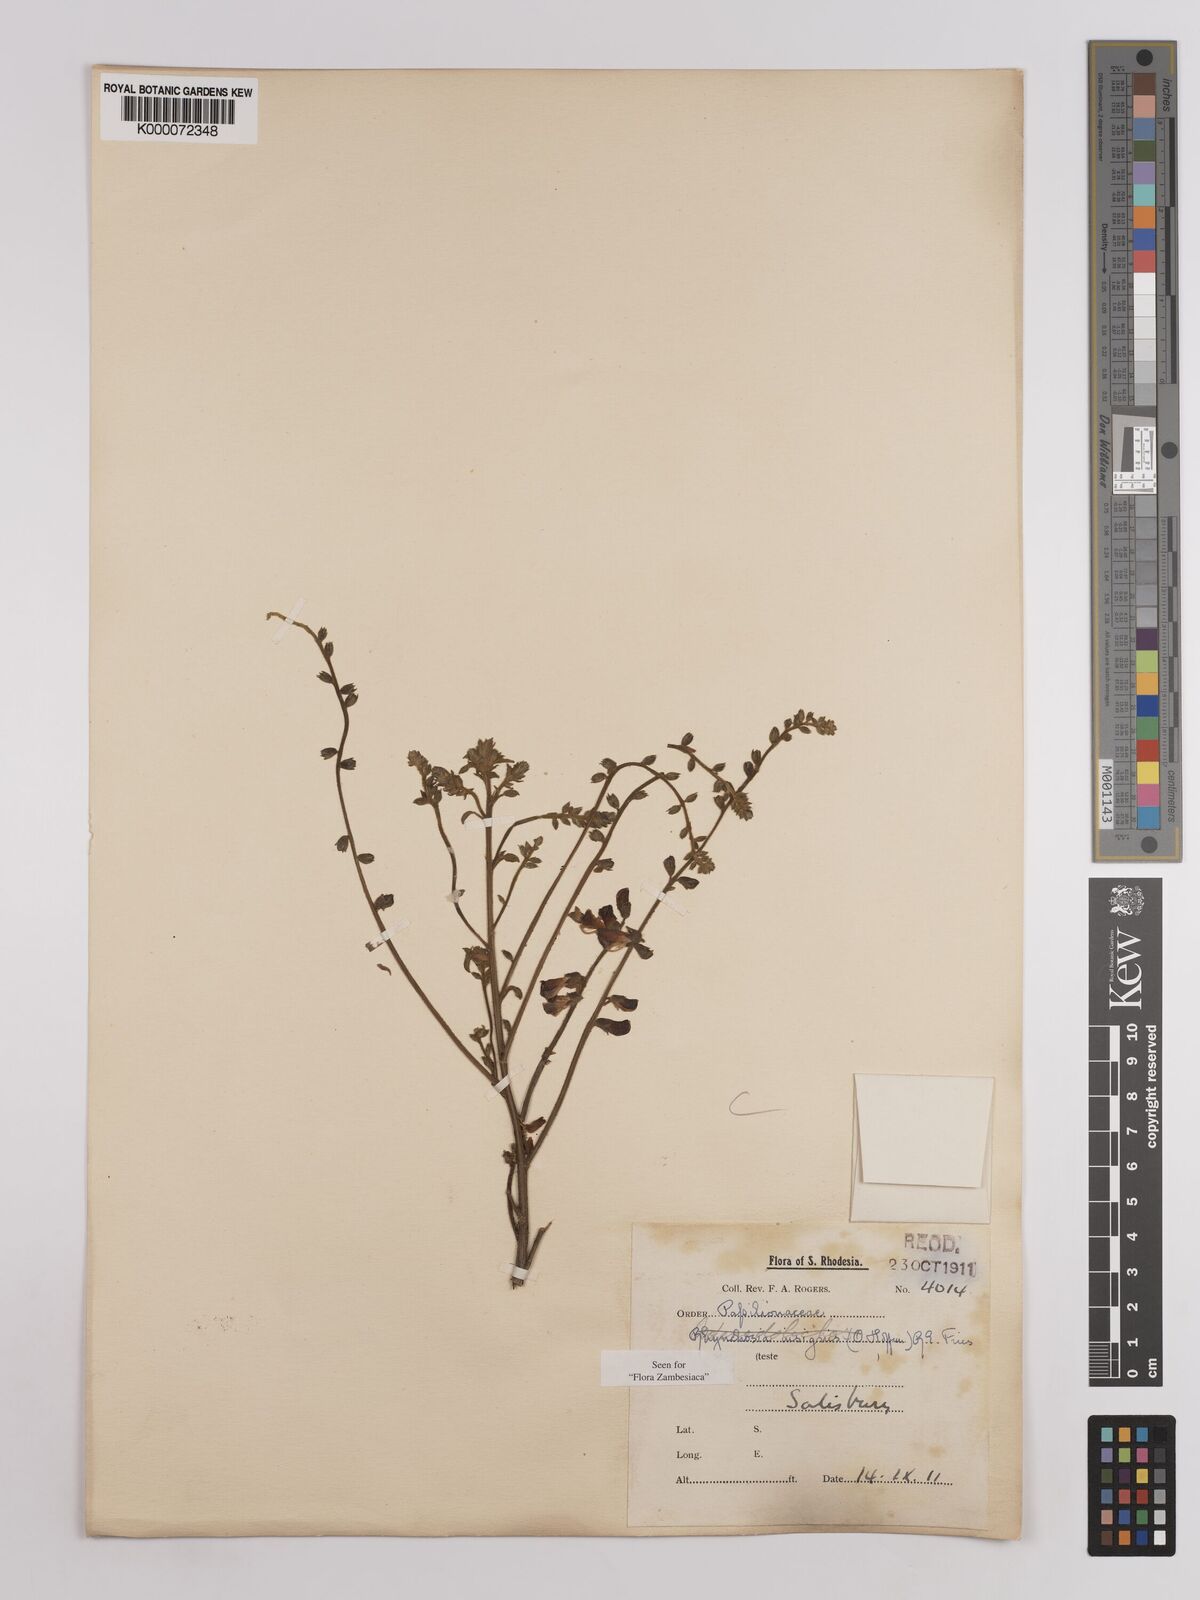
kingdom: Plantae
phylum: Tracheophyta
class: Magnoliopsida
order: Fabales
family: Fabaceae
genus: Rhynchosia
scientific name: Rhynchosia insignis
